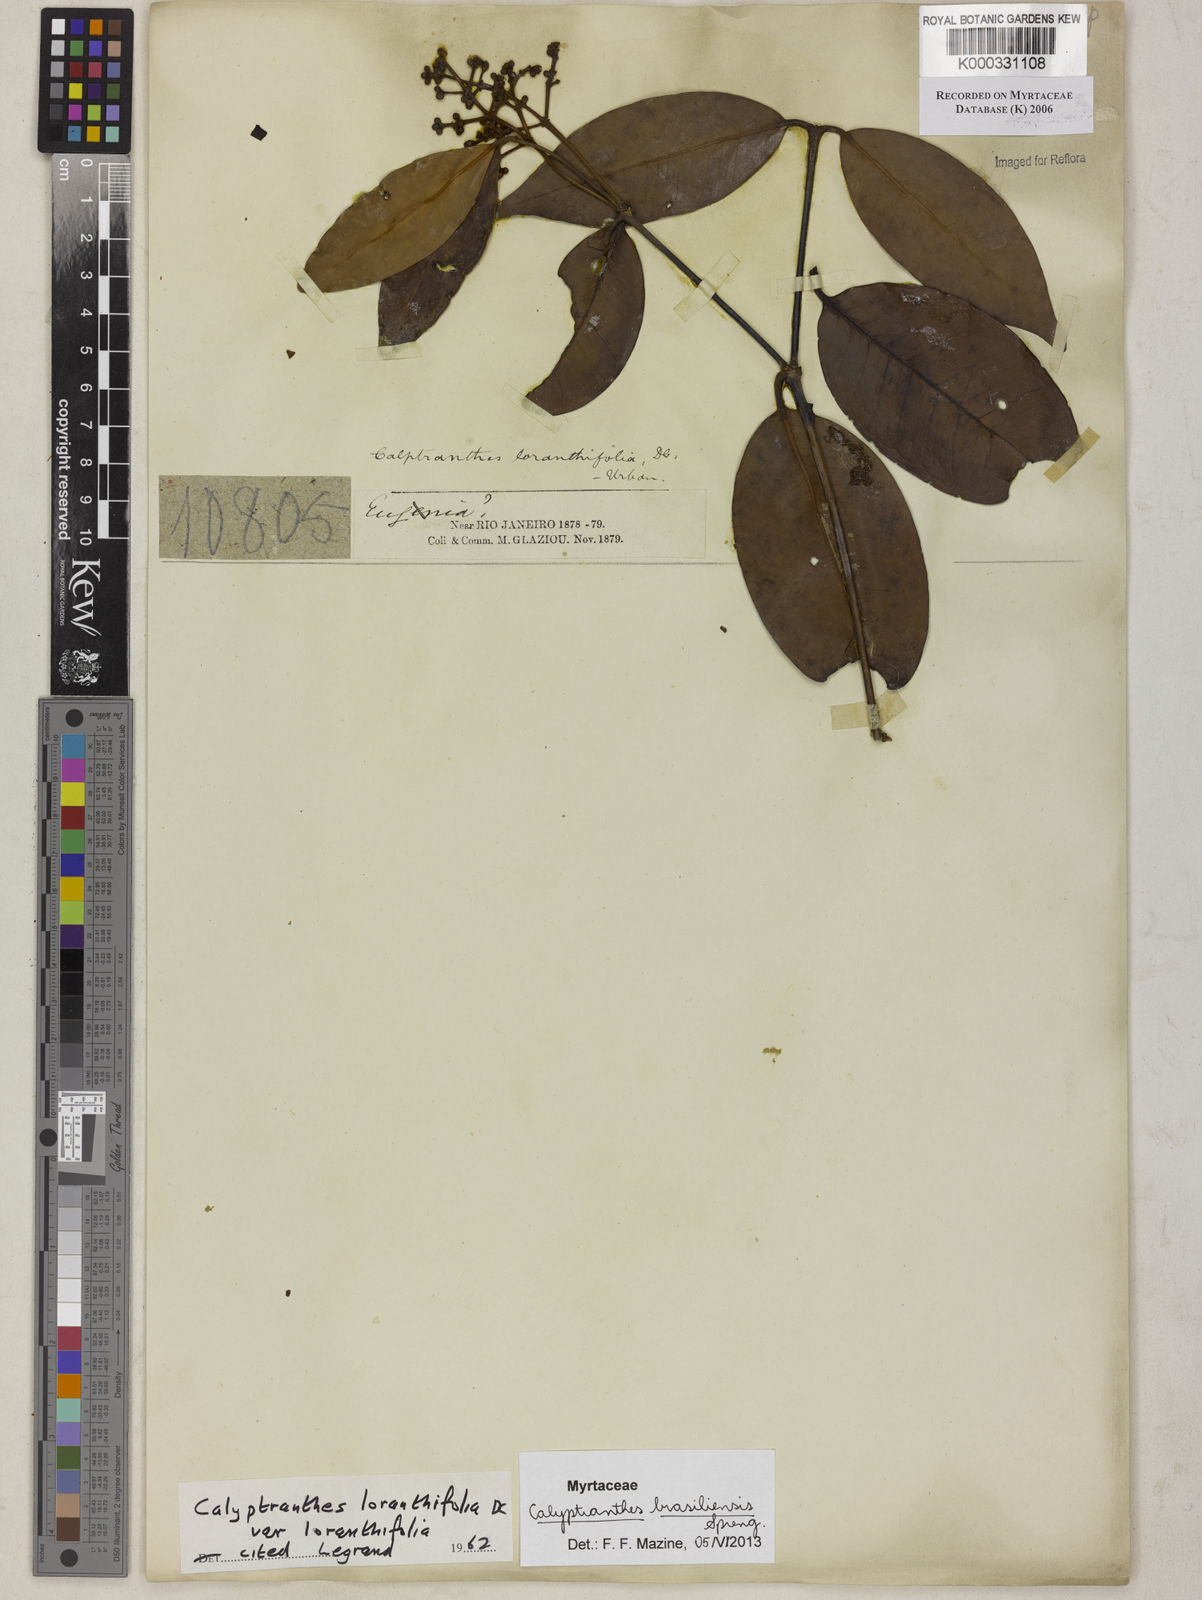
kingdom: Plantae
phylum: Tracheophyta
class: Magnoliopsida
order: Myrtales
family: Myrtaceae
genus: Myrcia
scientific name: Myrcia loranthifolia
